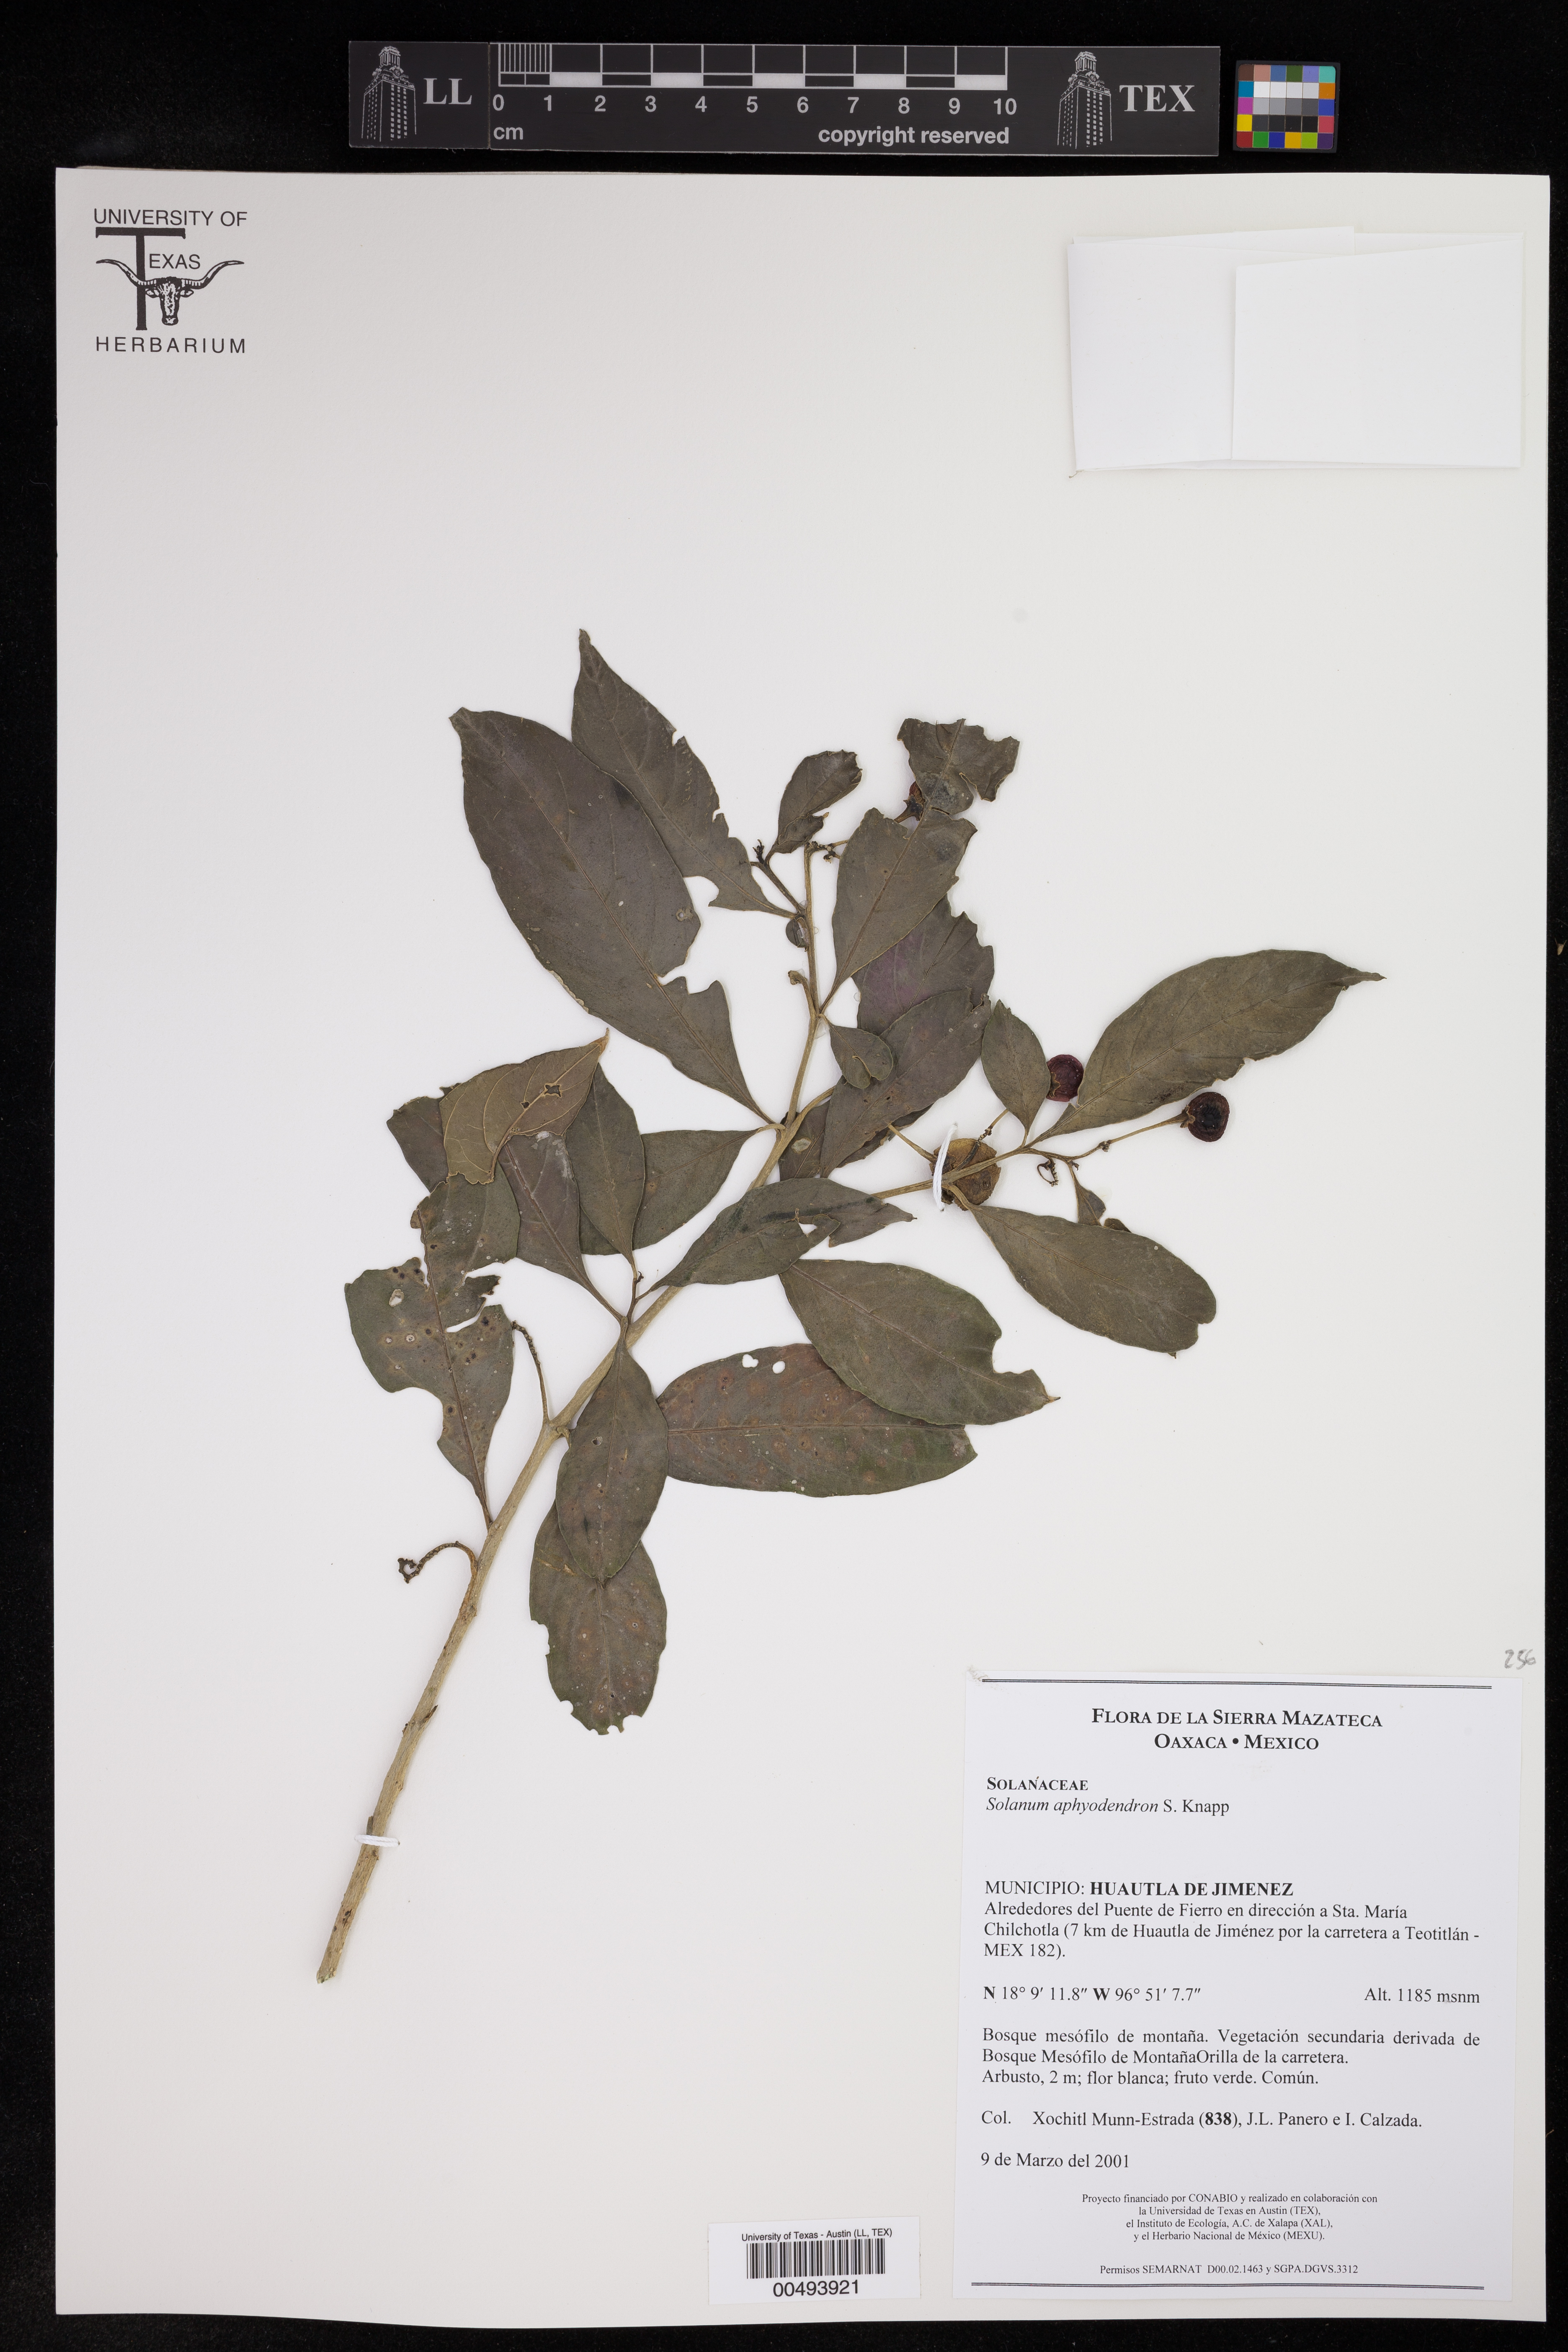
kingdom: Plantae
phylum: Tracheophyta
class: Magnoliopsida
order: Solanales
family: Solanaceae
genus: Solanum
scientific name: Solanum aphyodendron
